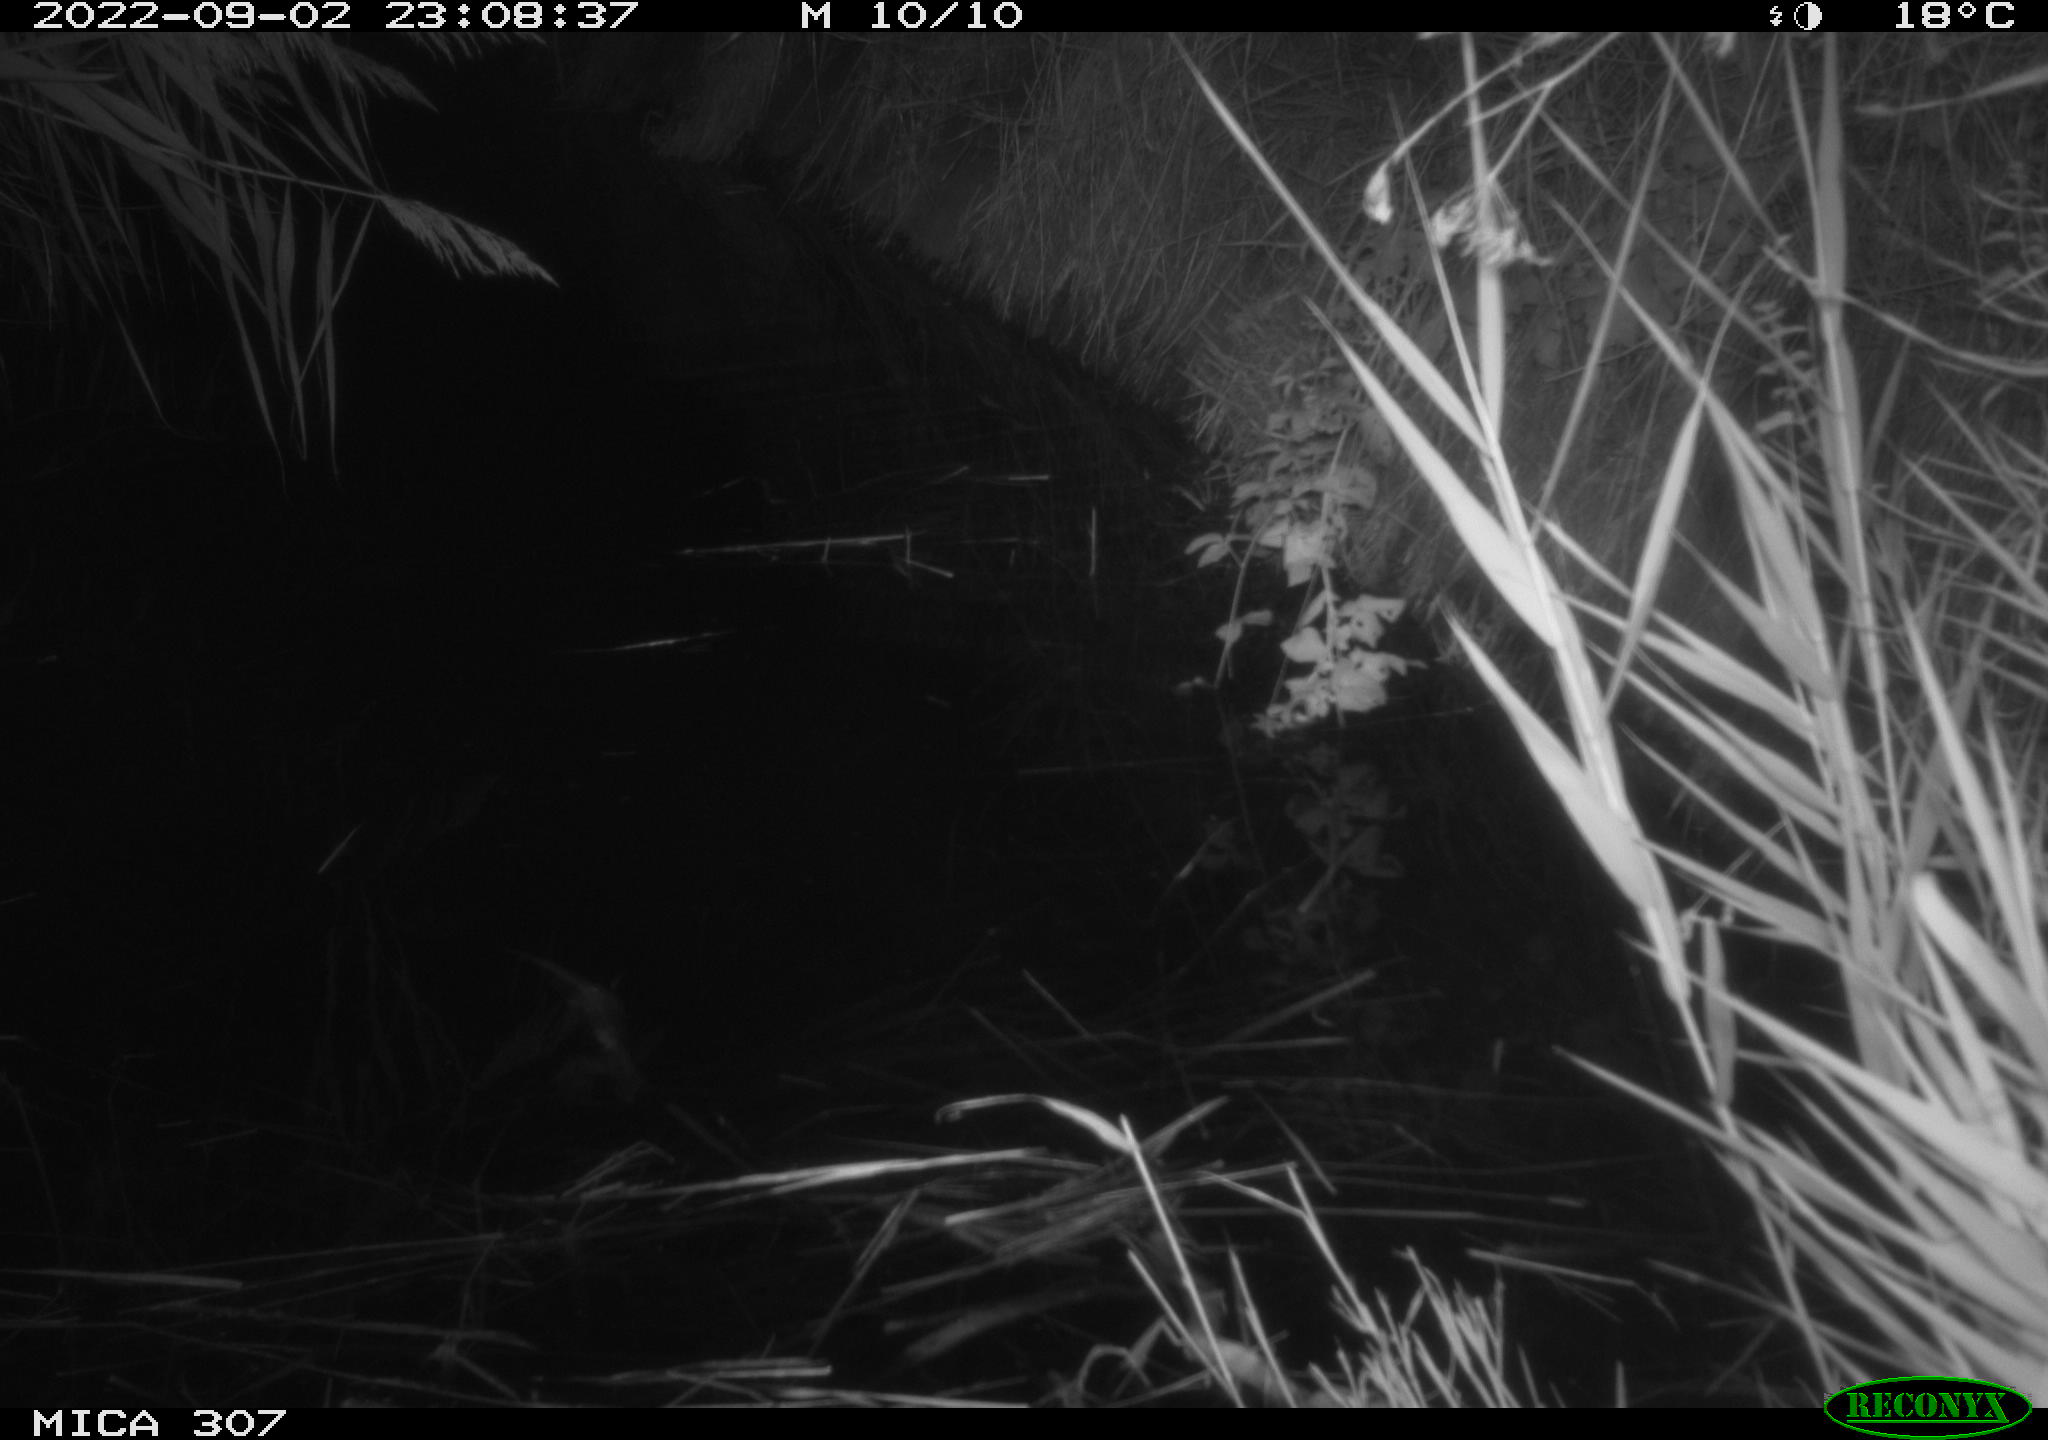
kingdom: Animalia
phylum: Chordata
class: Mammalia
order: Rodentia
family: Muridae
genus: Rattus
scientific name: Rattus norvegicus
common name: Brown rat
